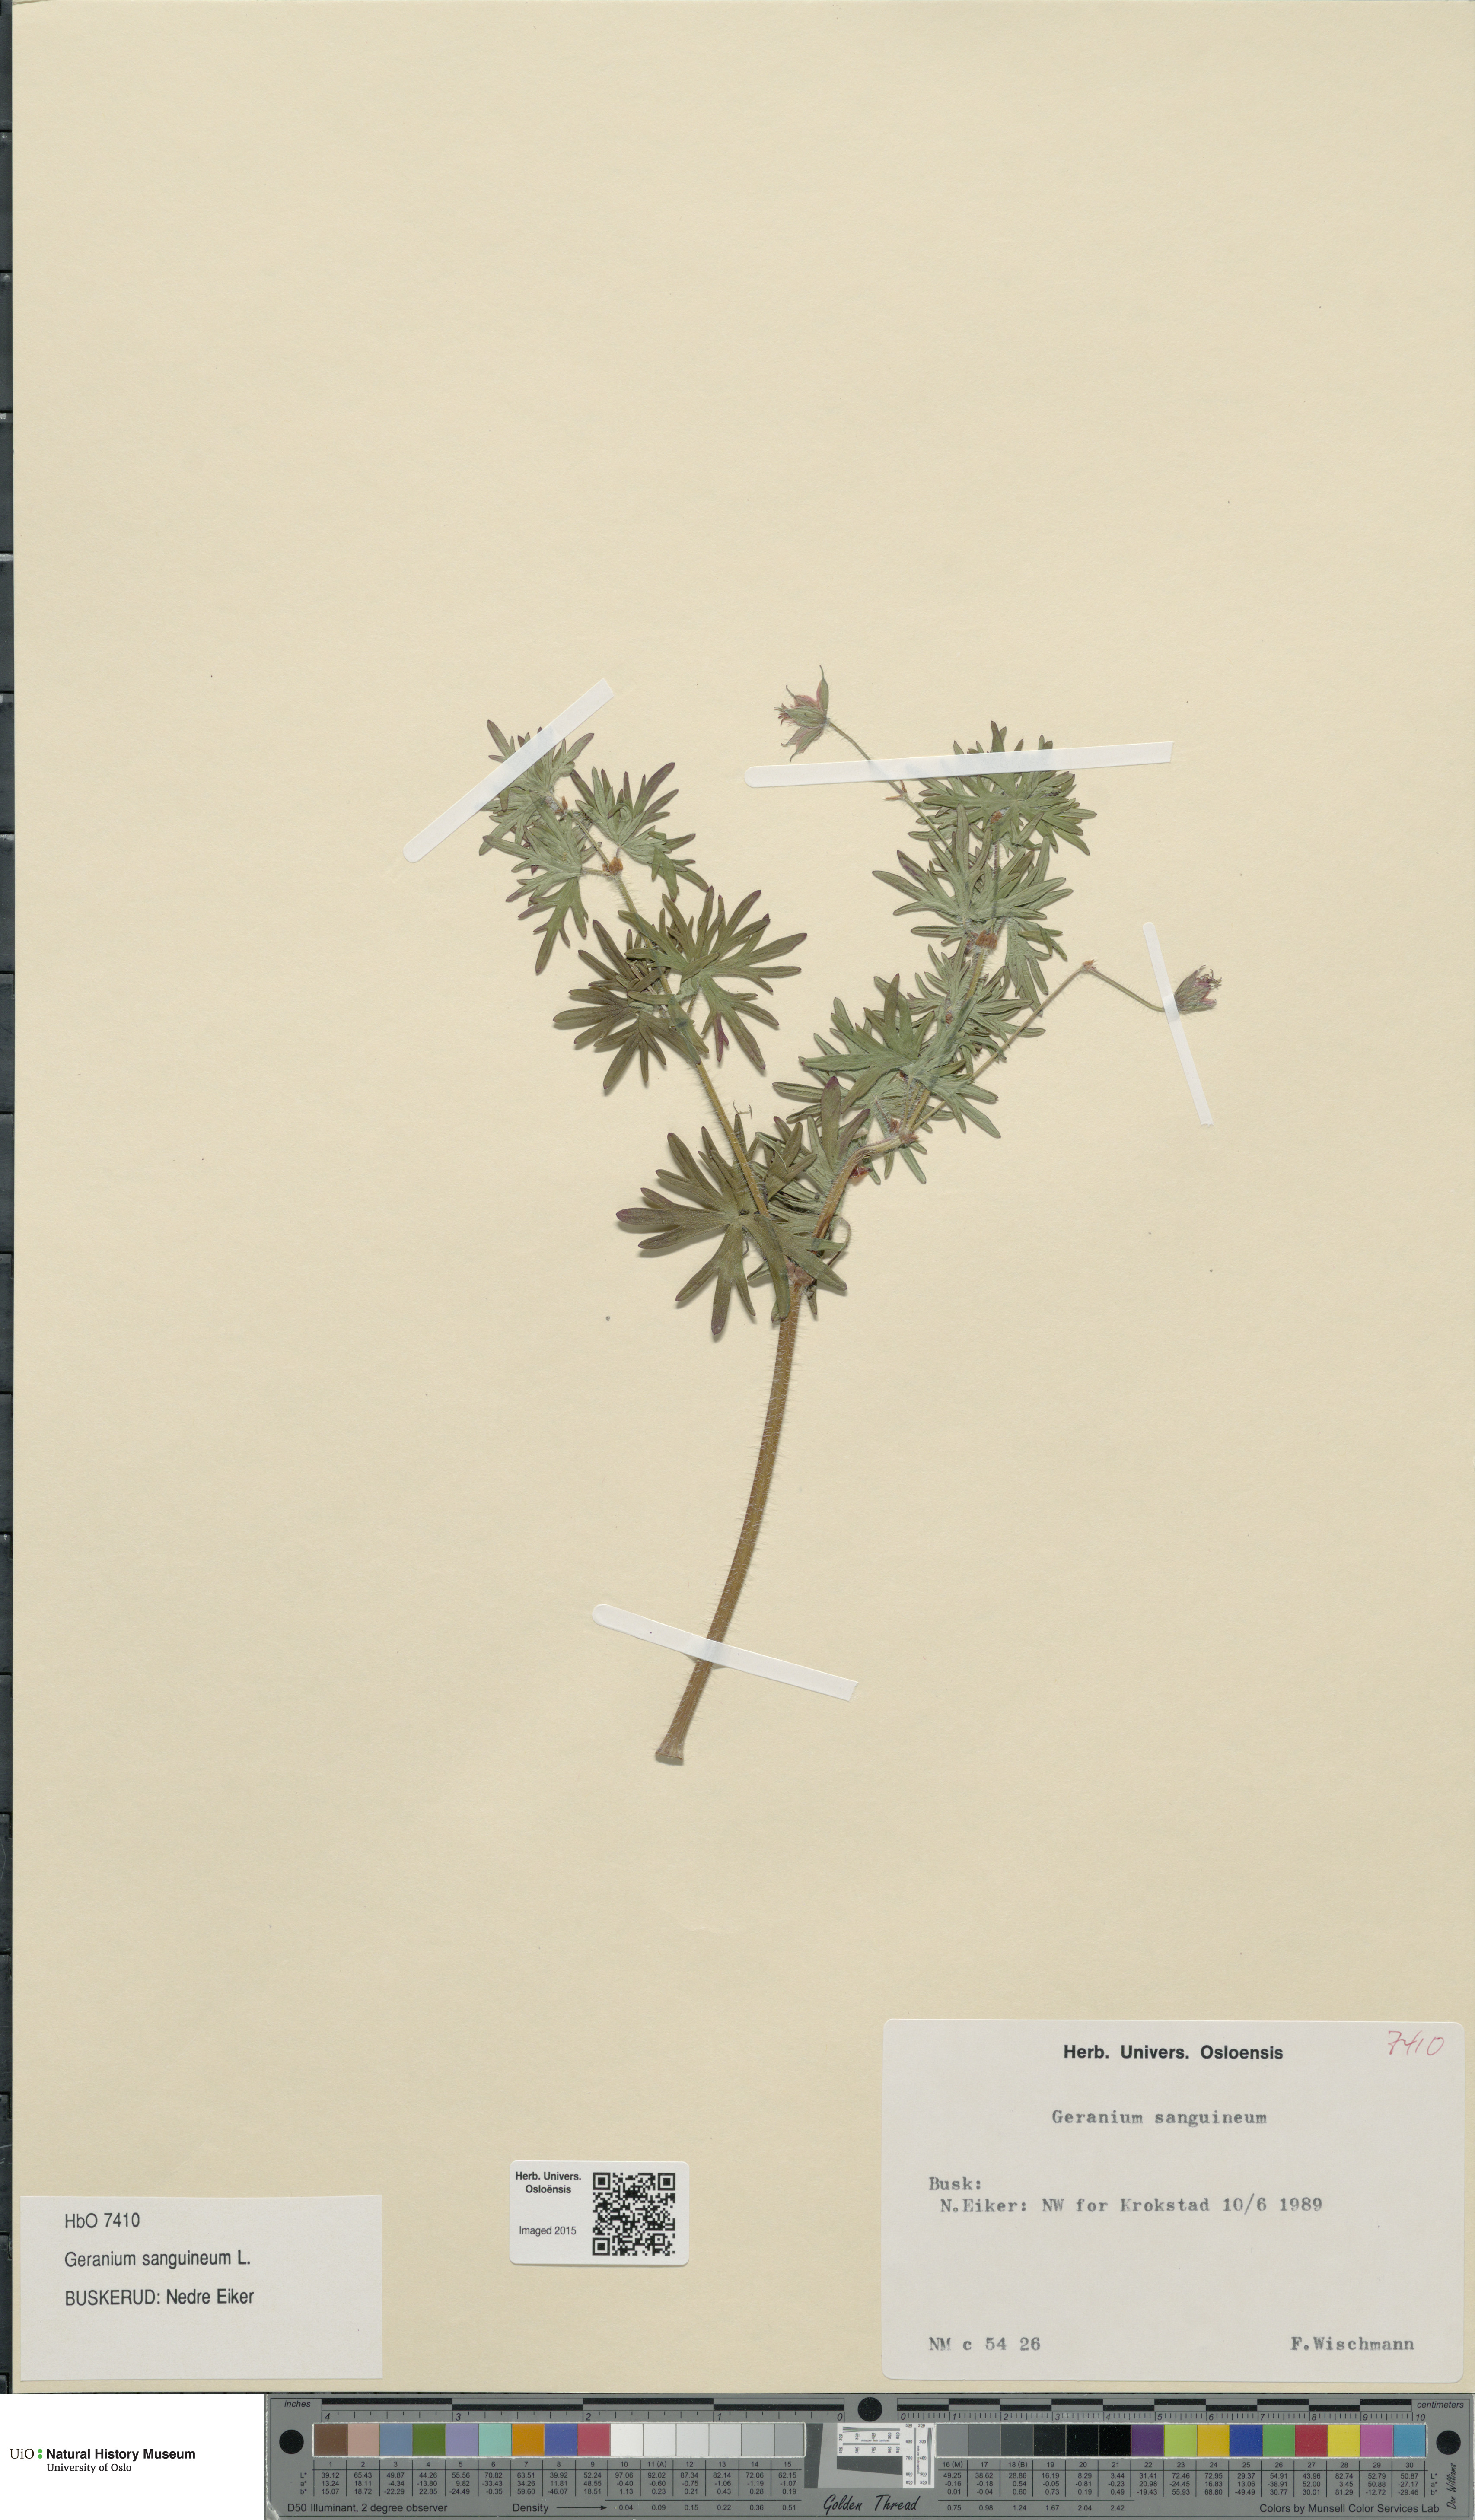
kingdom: Plantae
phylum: Tracheophyta
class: Magnoliopsida
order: Geraniales
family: Geraniaceae
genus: Geranium
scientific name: Geranium sanguineum
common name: Bloody crane's-bill
